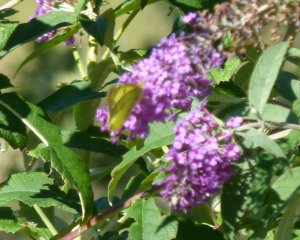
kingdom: Animalia
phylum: Arthropoda
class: Insecta
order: Lepidoptera
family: Pieridae
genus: Colias
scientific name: Colias philodice
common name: Clouded Sulphur
